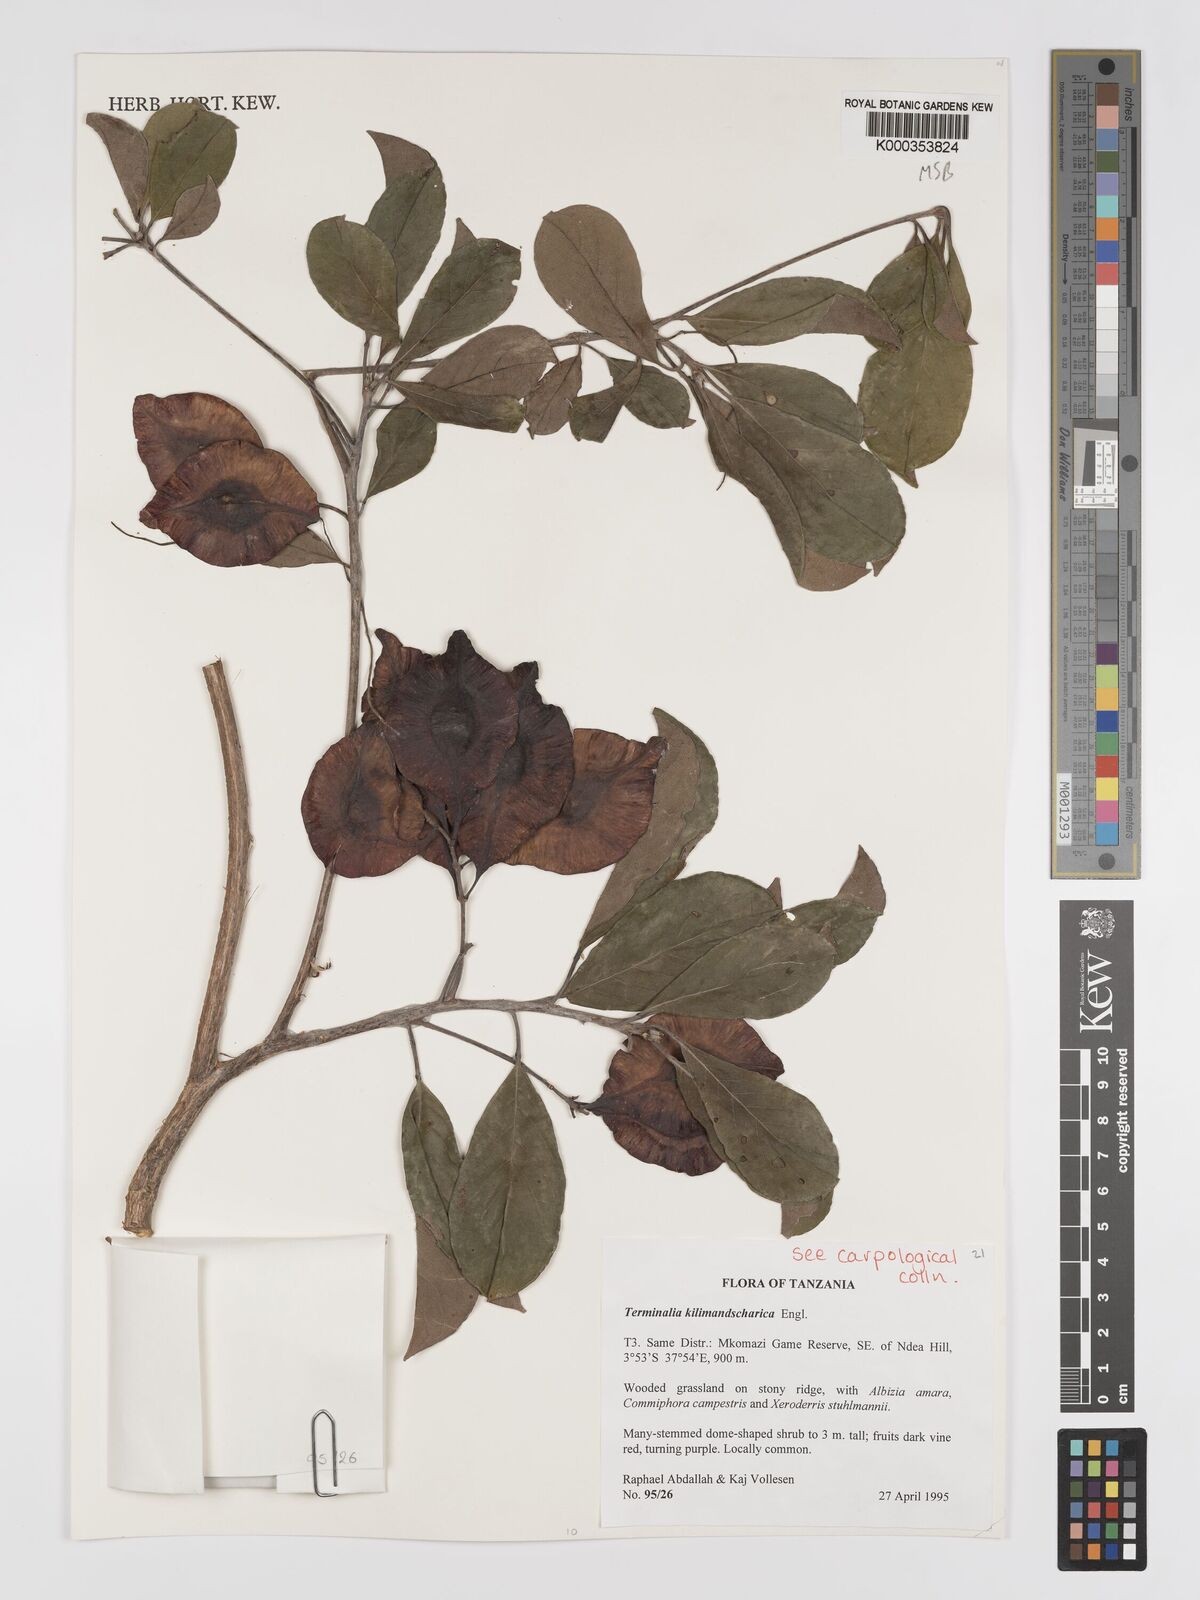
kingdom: Plantae
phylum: Tracheophyta
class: Magnoliopsida
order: Myrtales
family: Combretaceae
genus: Terminalia
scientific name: Terminalia kilimandscharica
